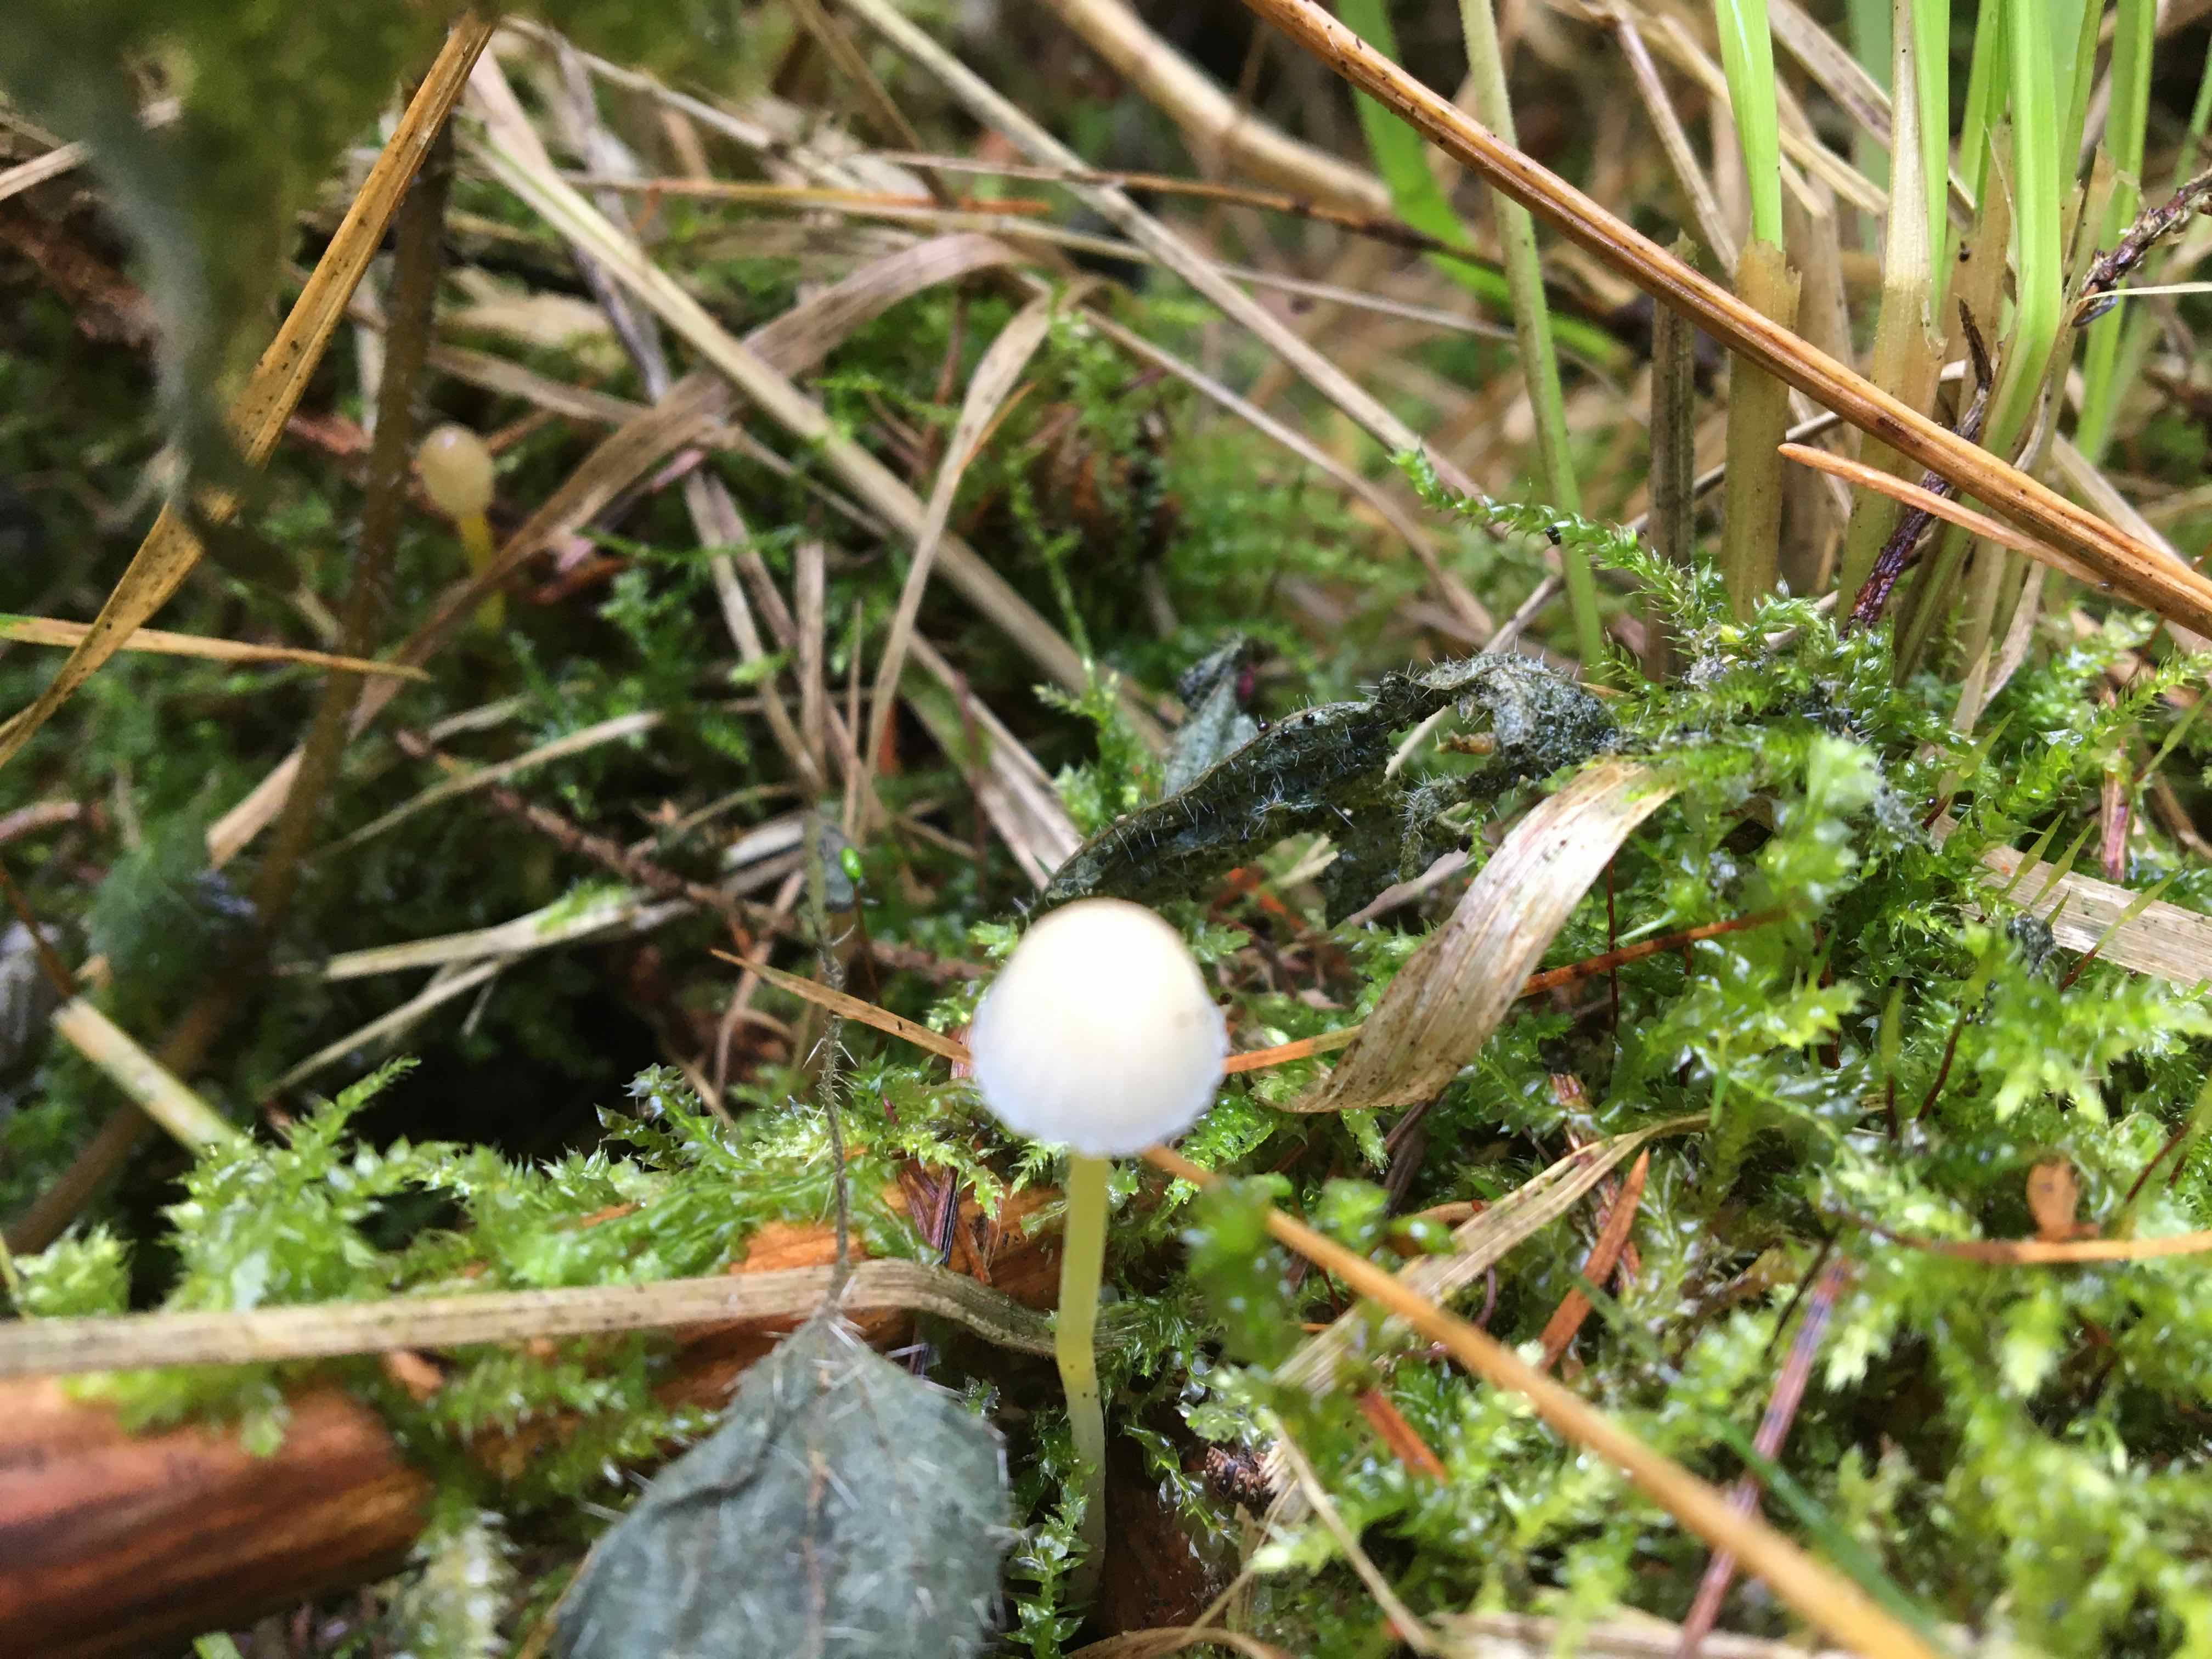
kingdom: Fungi
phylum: Basidiomycota
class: Agaricomycetes
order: Agaricales
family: Mycenaceae
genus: Mycena
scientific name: Mycena epipterygia
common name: gulstokket huesvamp
